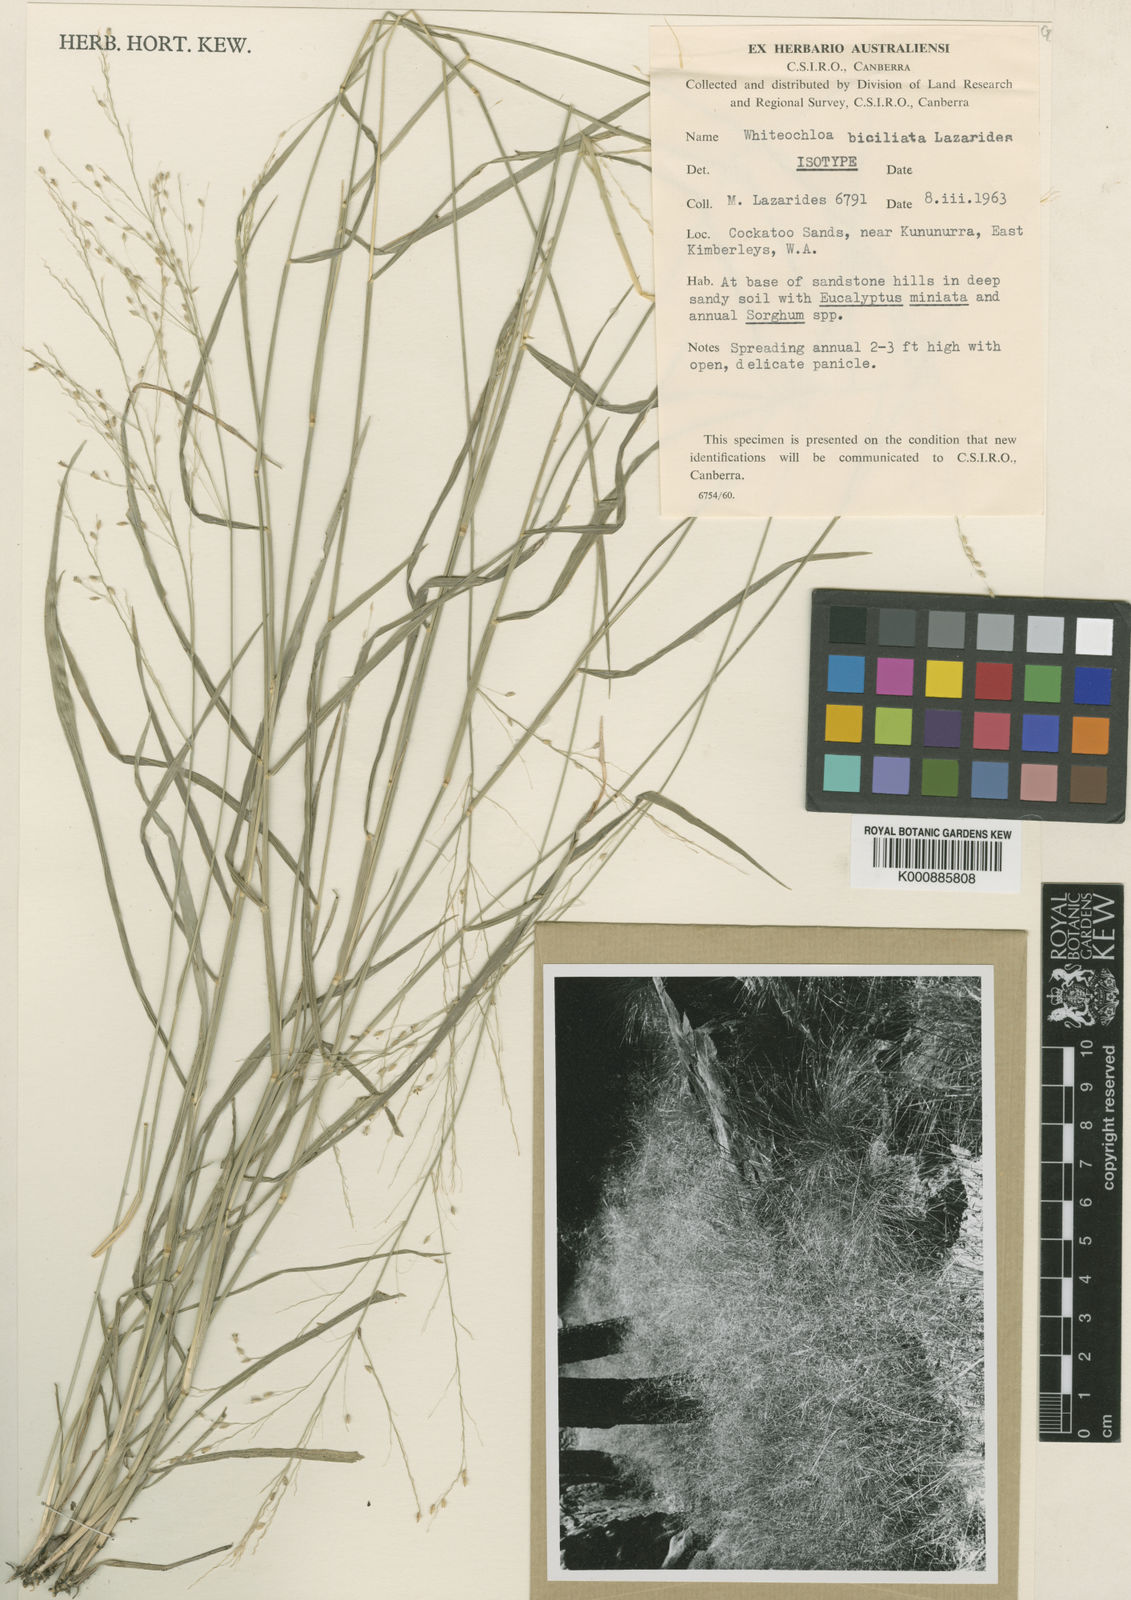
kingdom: Plantae
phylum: Tracheophyta
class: Liliopsida
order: Poales
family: Poaceae
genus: Whiteochloa
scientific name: Whiteochloa biciliata
